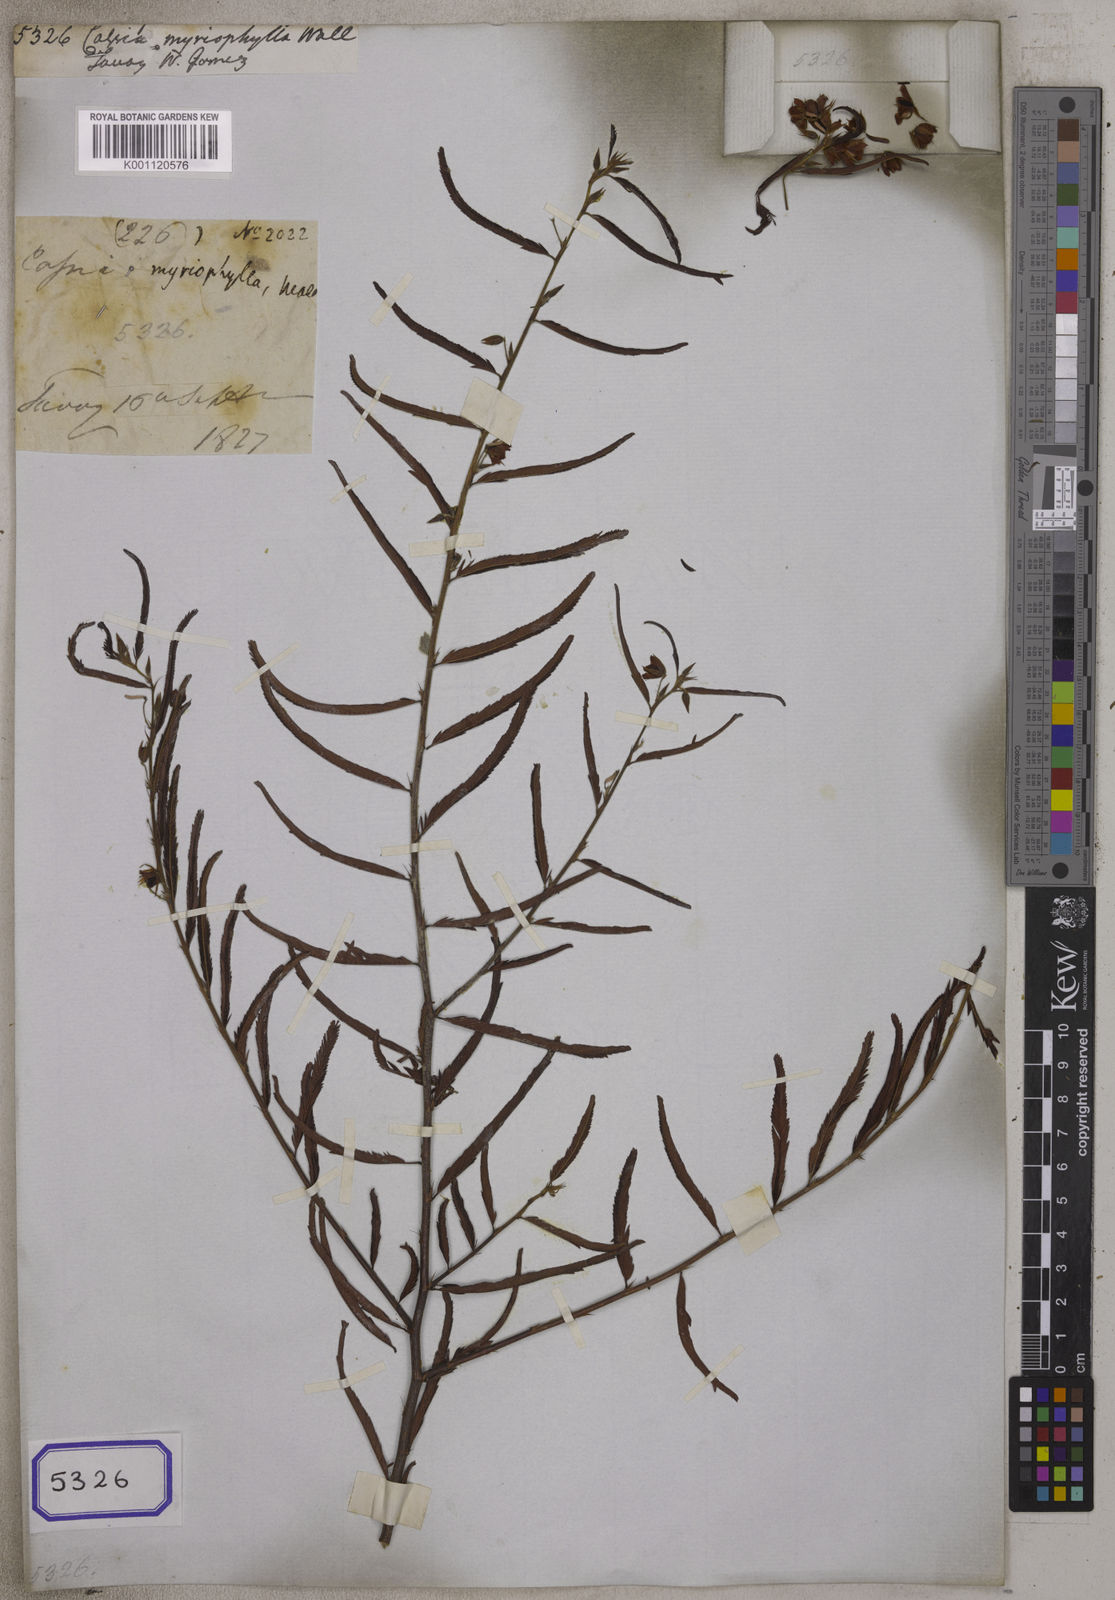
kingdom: Plantae
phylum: Tracheophyta
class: Magnoliopsida
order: Fabales
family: Fabaceae
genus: Chamaecrista
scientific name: Chamaecrista mimosoides
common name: Fish-bone cassia
